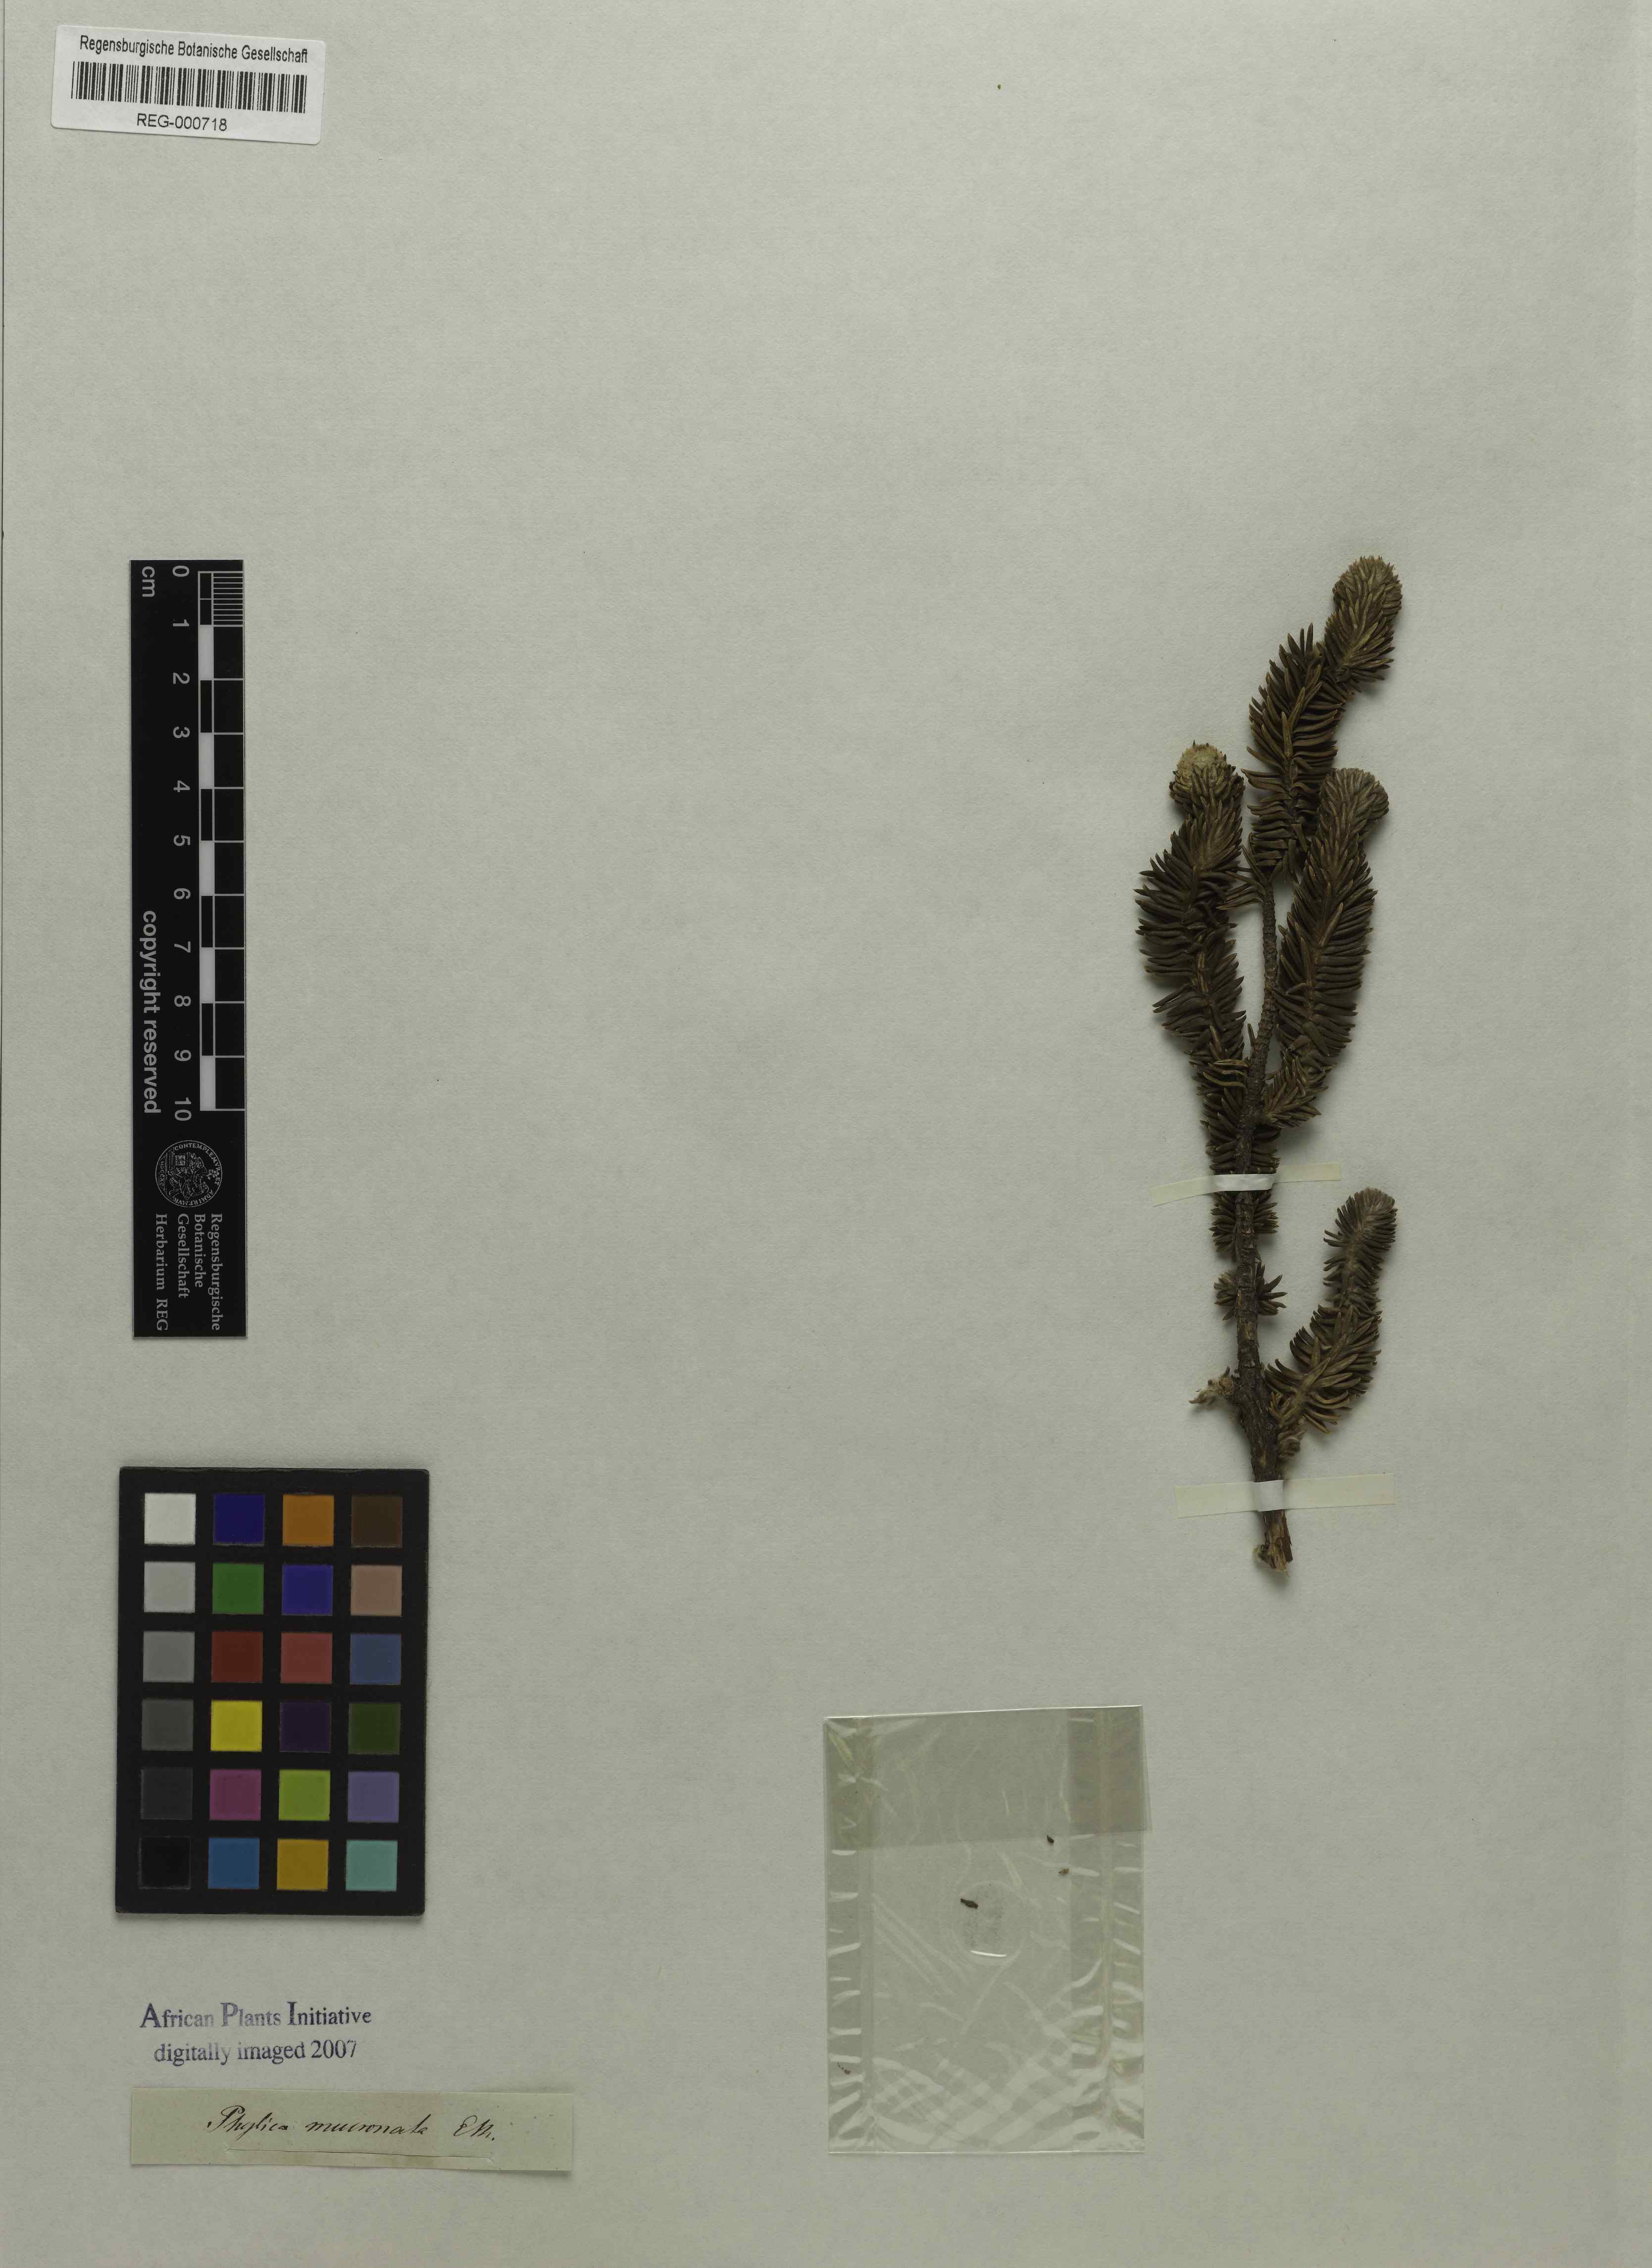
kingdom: Plantae
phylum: Tracheophyta
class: Magnoliopsida
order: Lamiales
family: Stilbaceae
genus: Kogelbergia
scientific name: Kogelbergia verticillata
